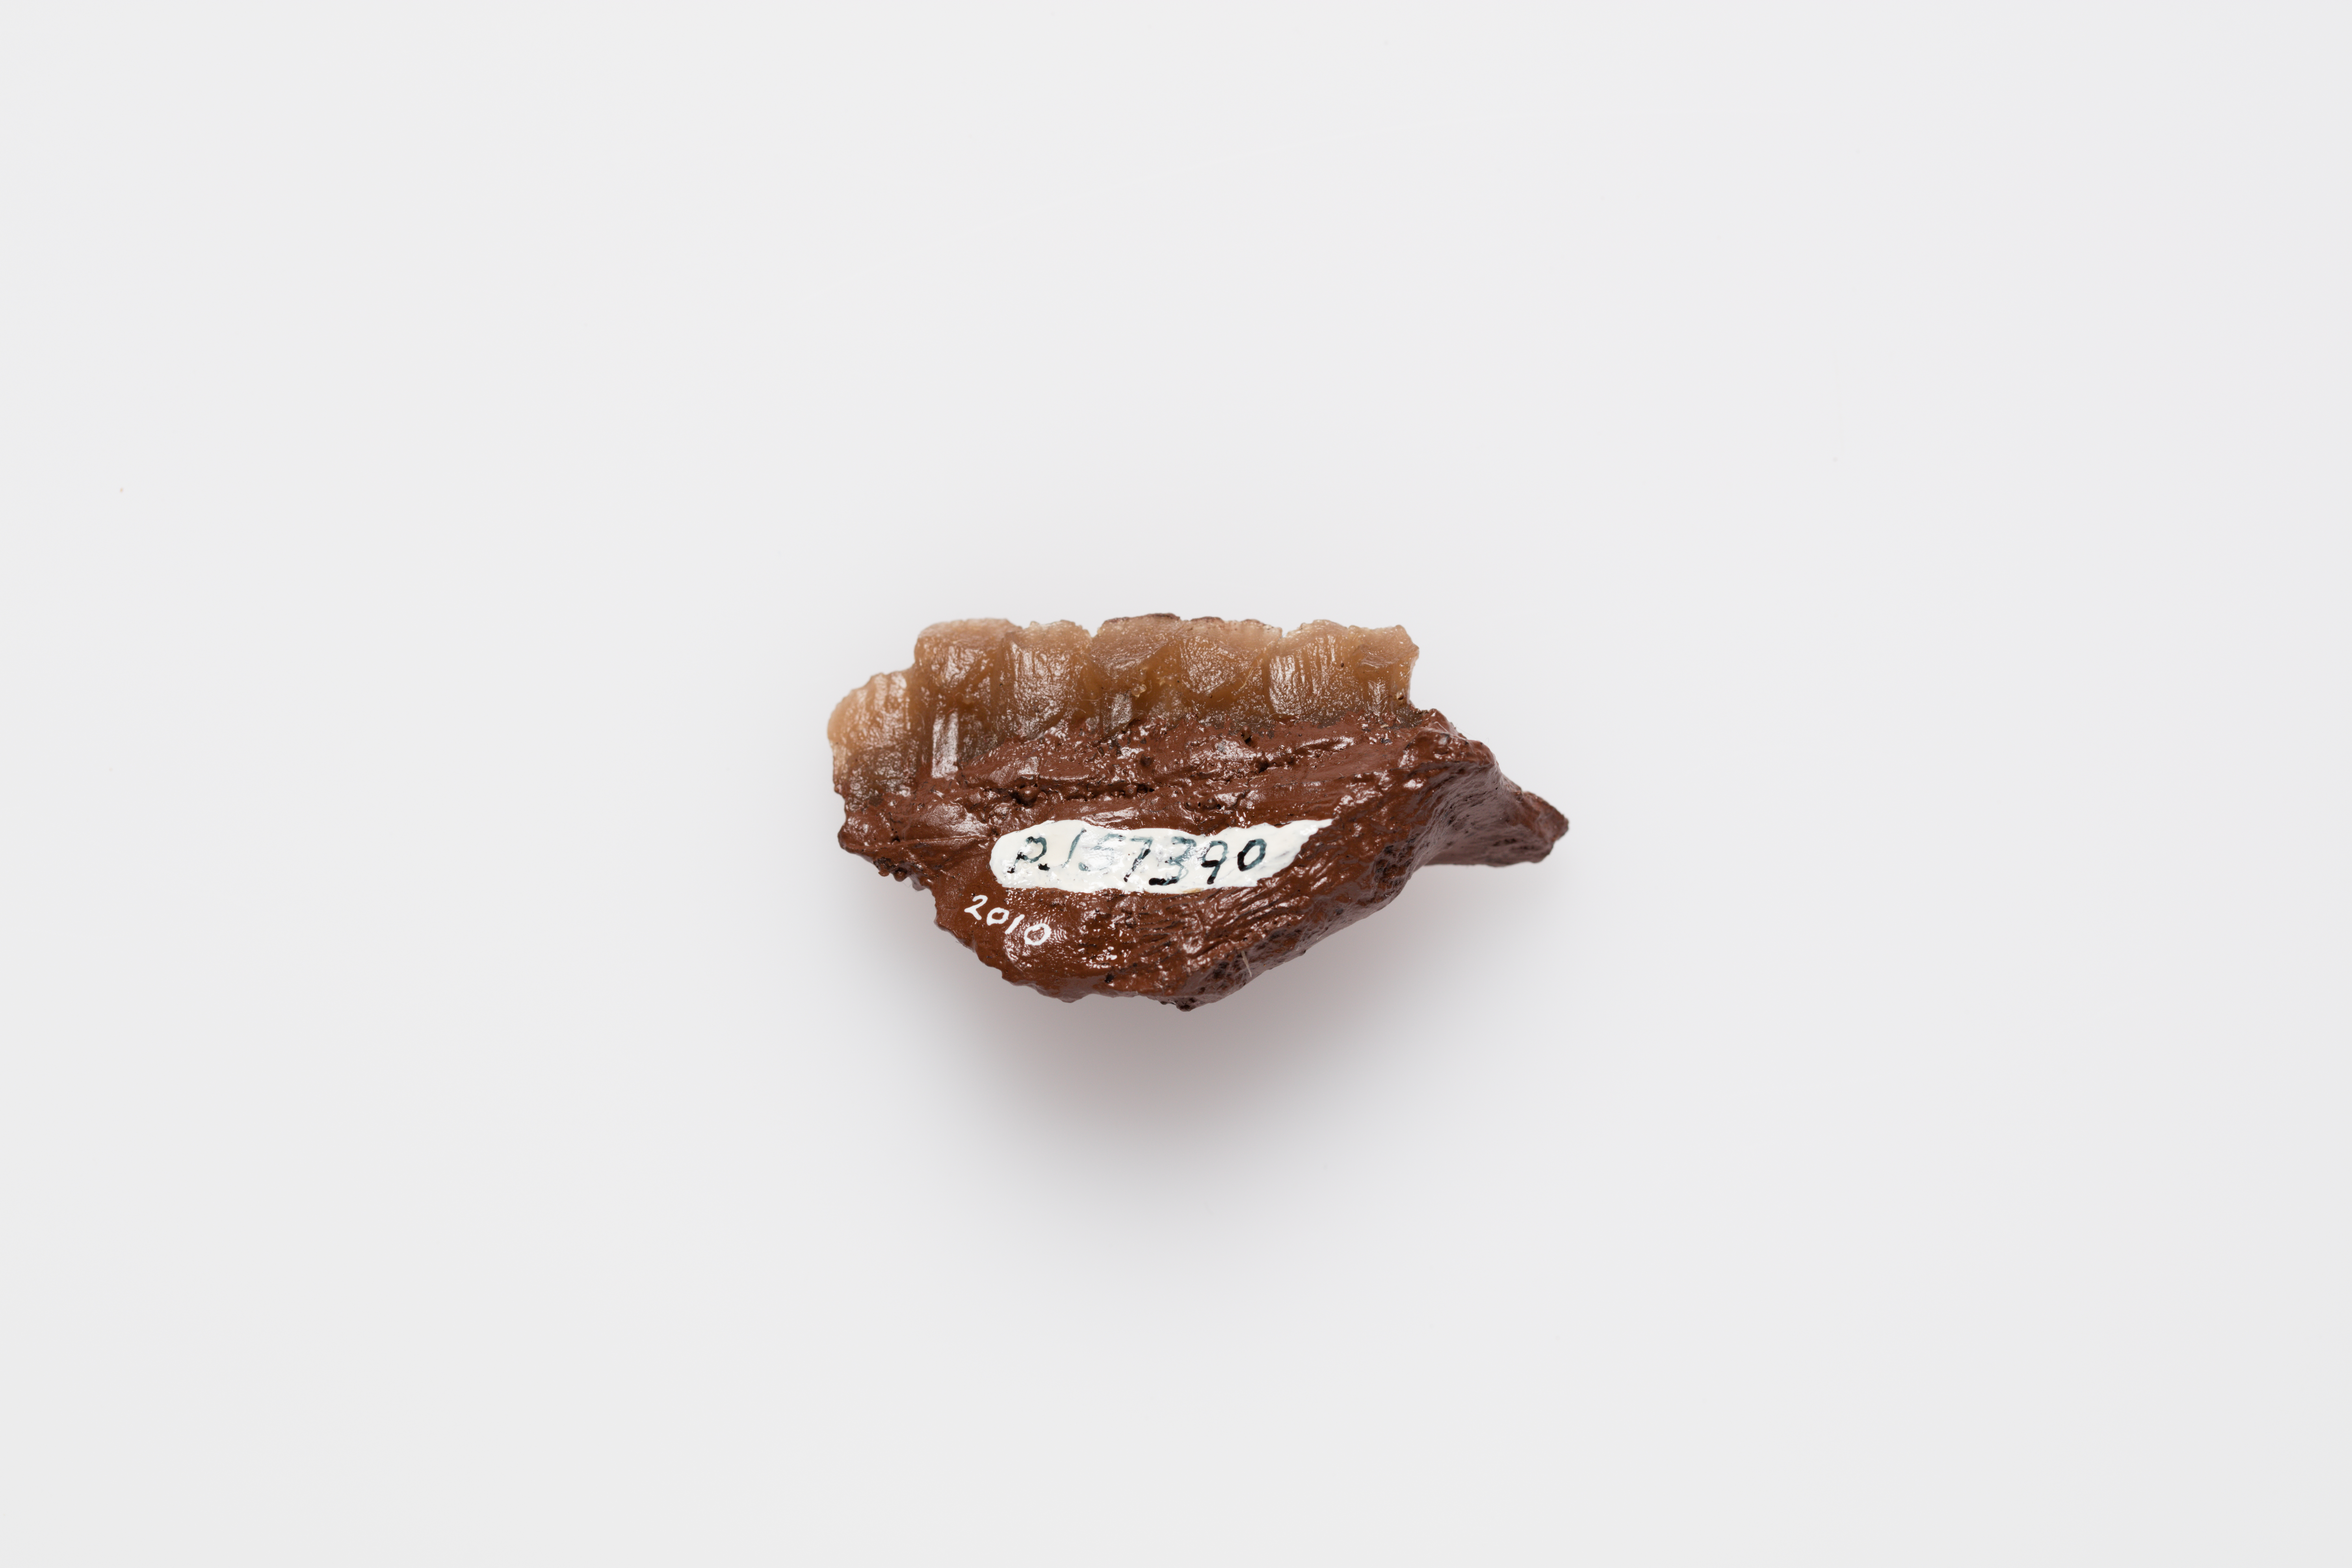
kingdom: Animalia
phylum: Chordata
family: Hypsilophodontidae
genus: Leaellynasaura
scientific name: Leaellynasaura amicagraphica
